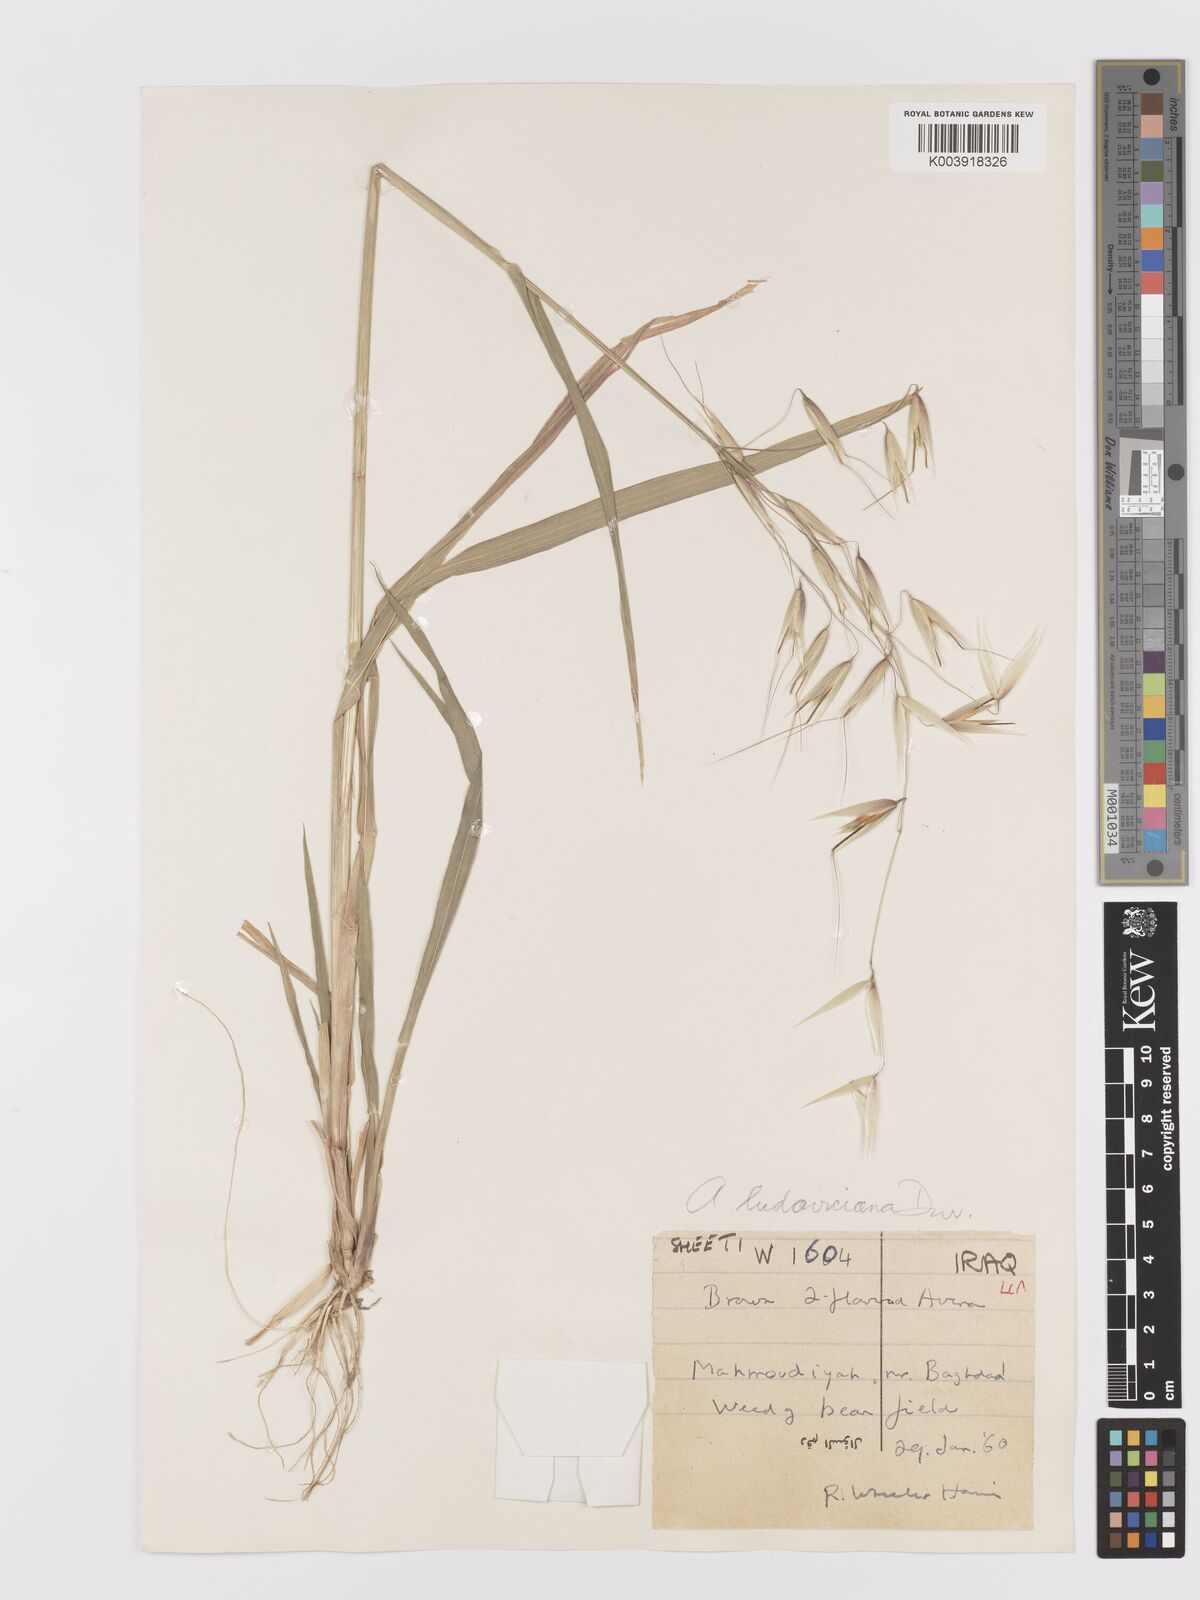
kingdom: Plantae
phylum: Tracheophyta
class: Liliopsida
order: Poales
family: Poaceae
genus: Avena
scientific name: Avena sterilis
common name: Animated oat
